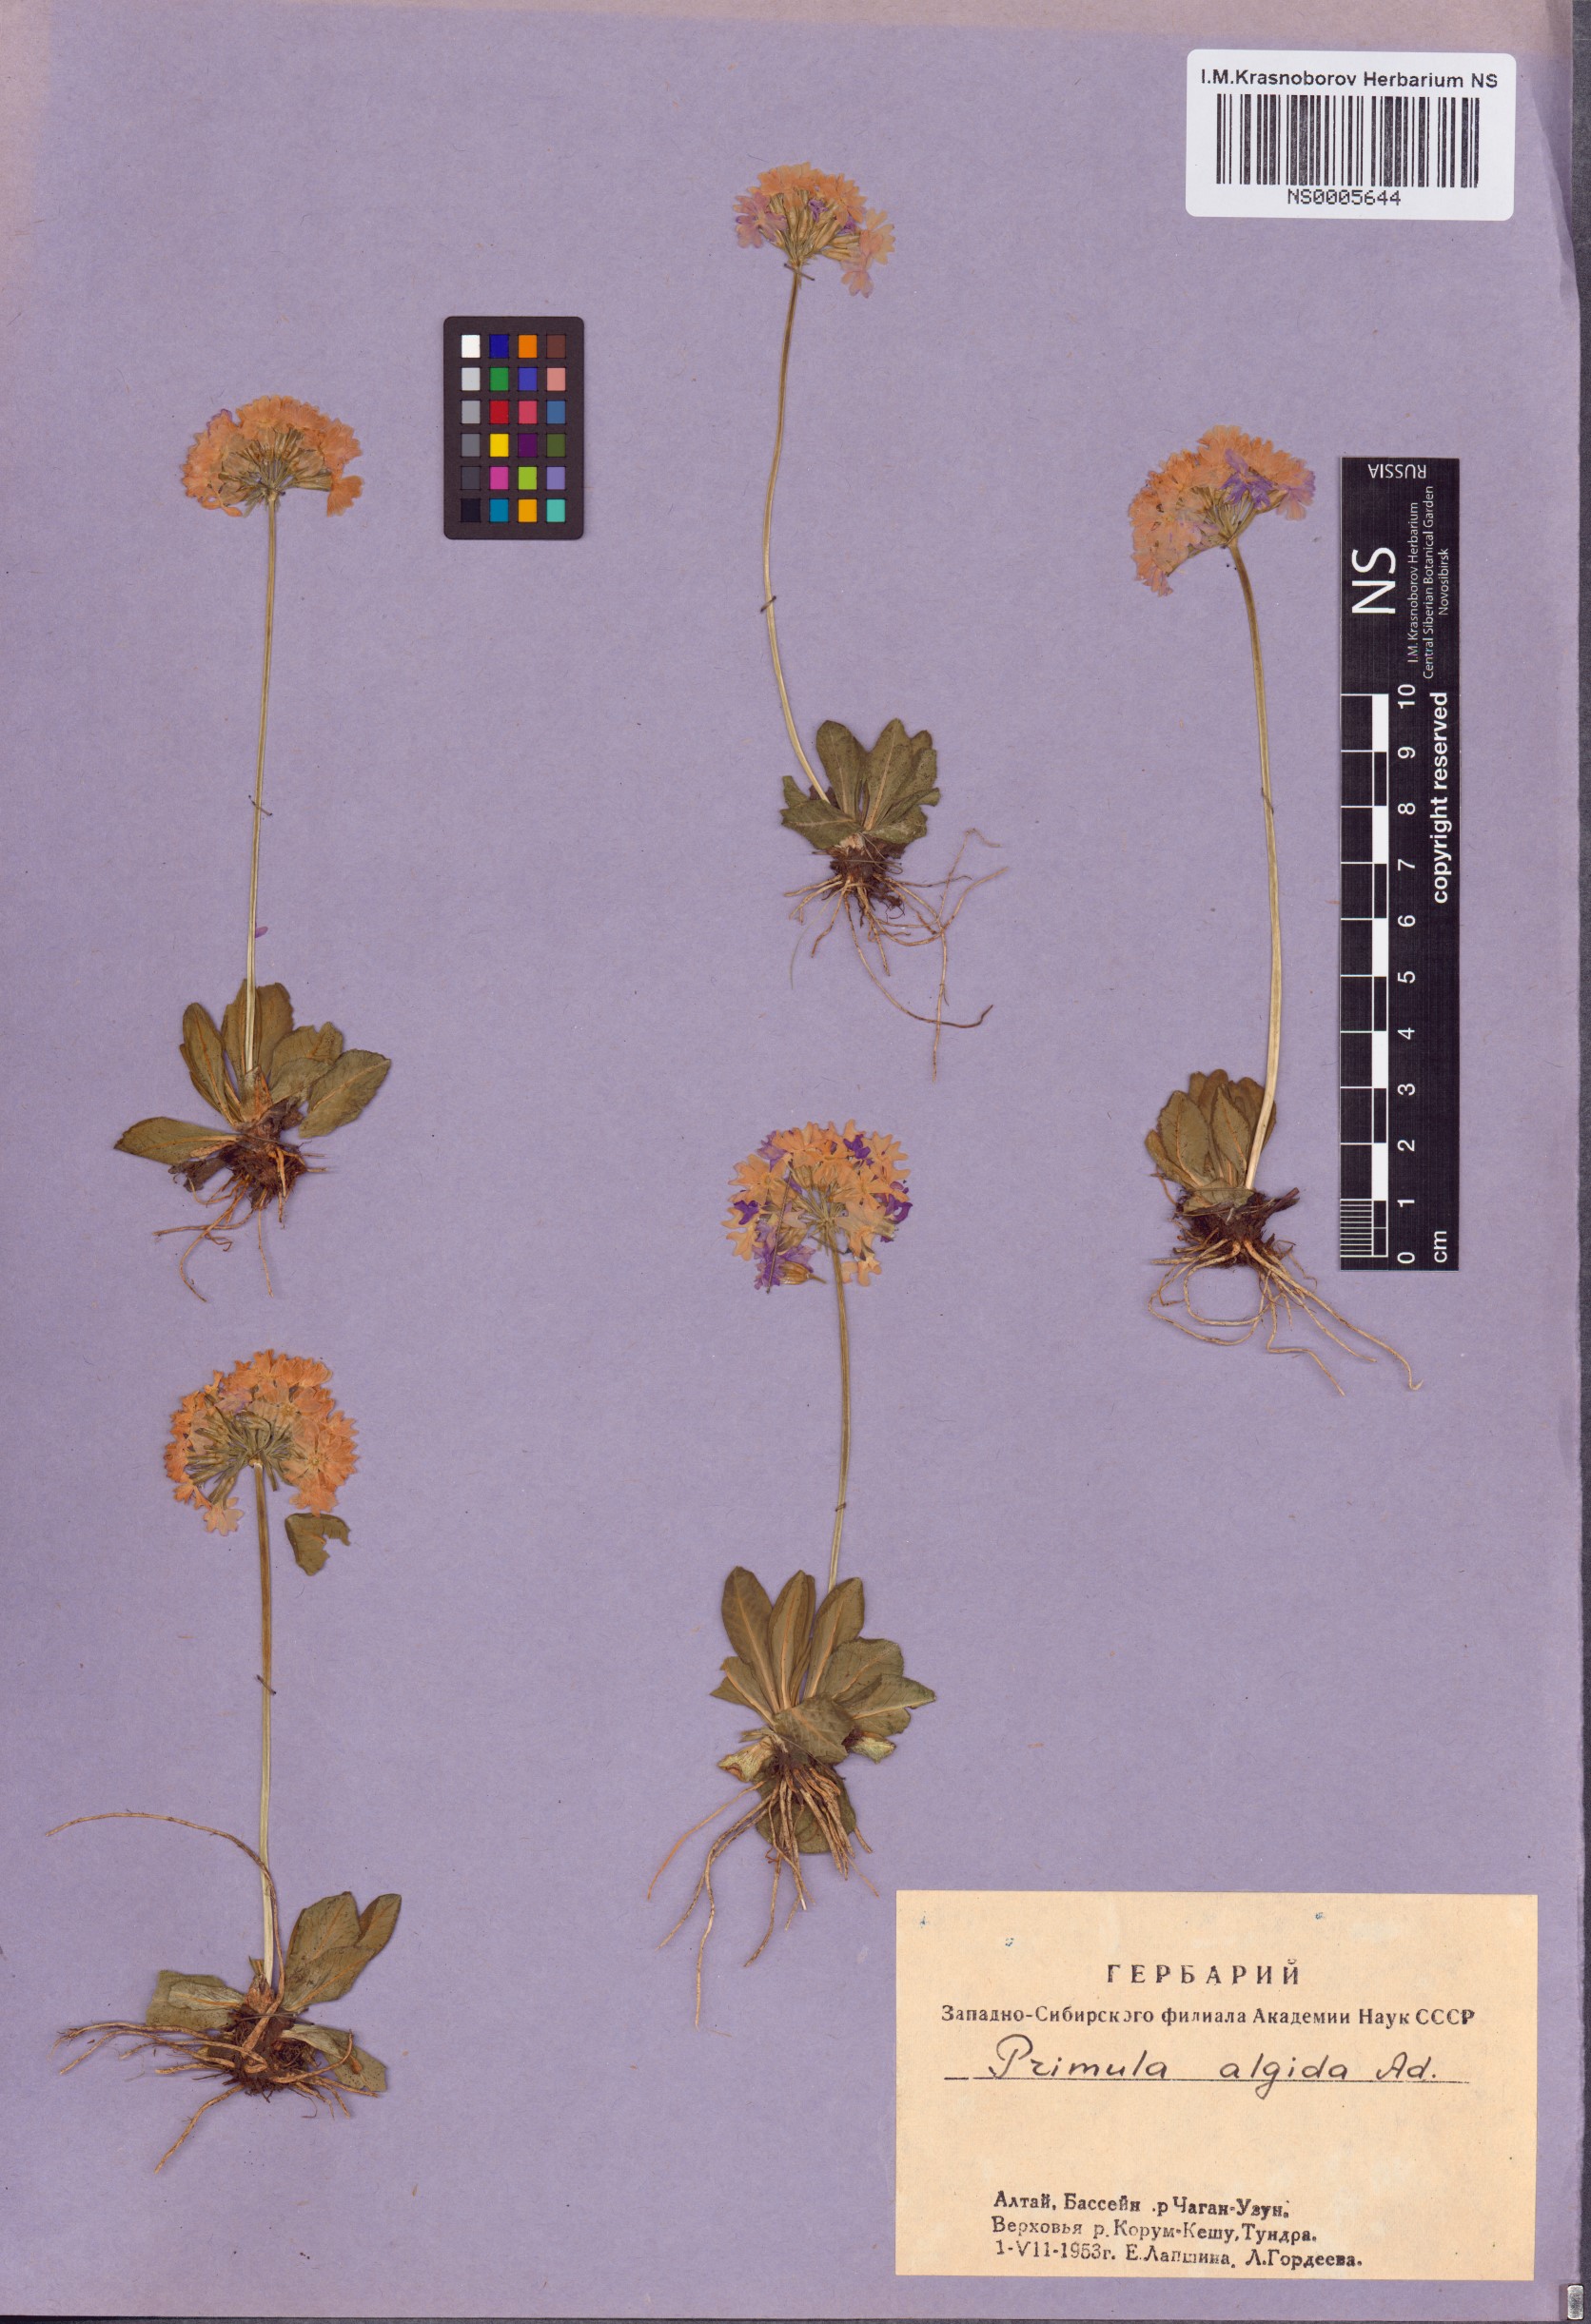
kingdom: Plantae
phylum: Tracheophyta
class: Magnoliopsida
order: Ericales
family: Primulaceae
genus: Primula
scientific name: Primula algida
